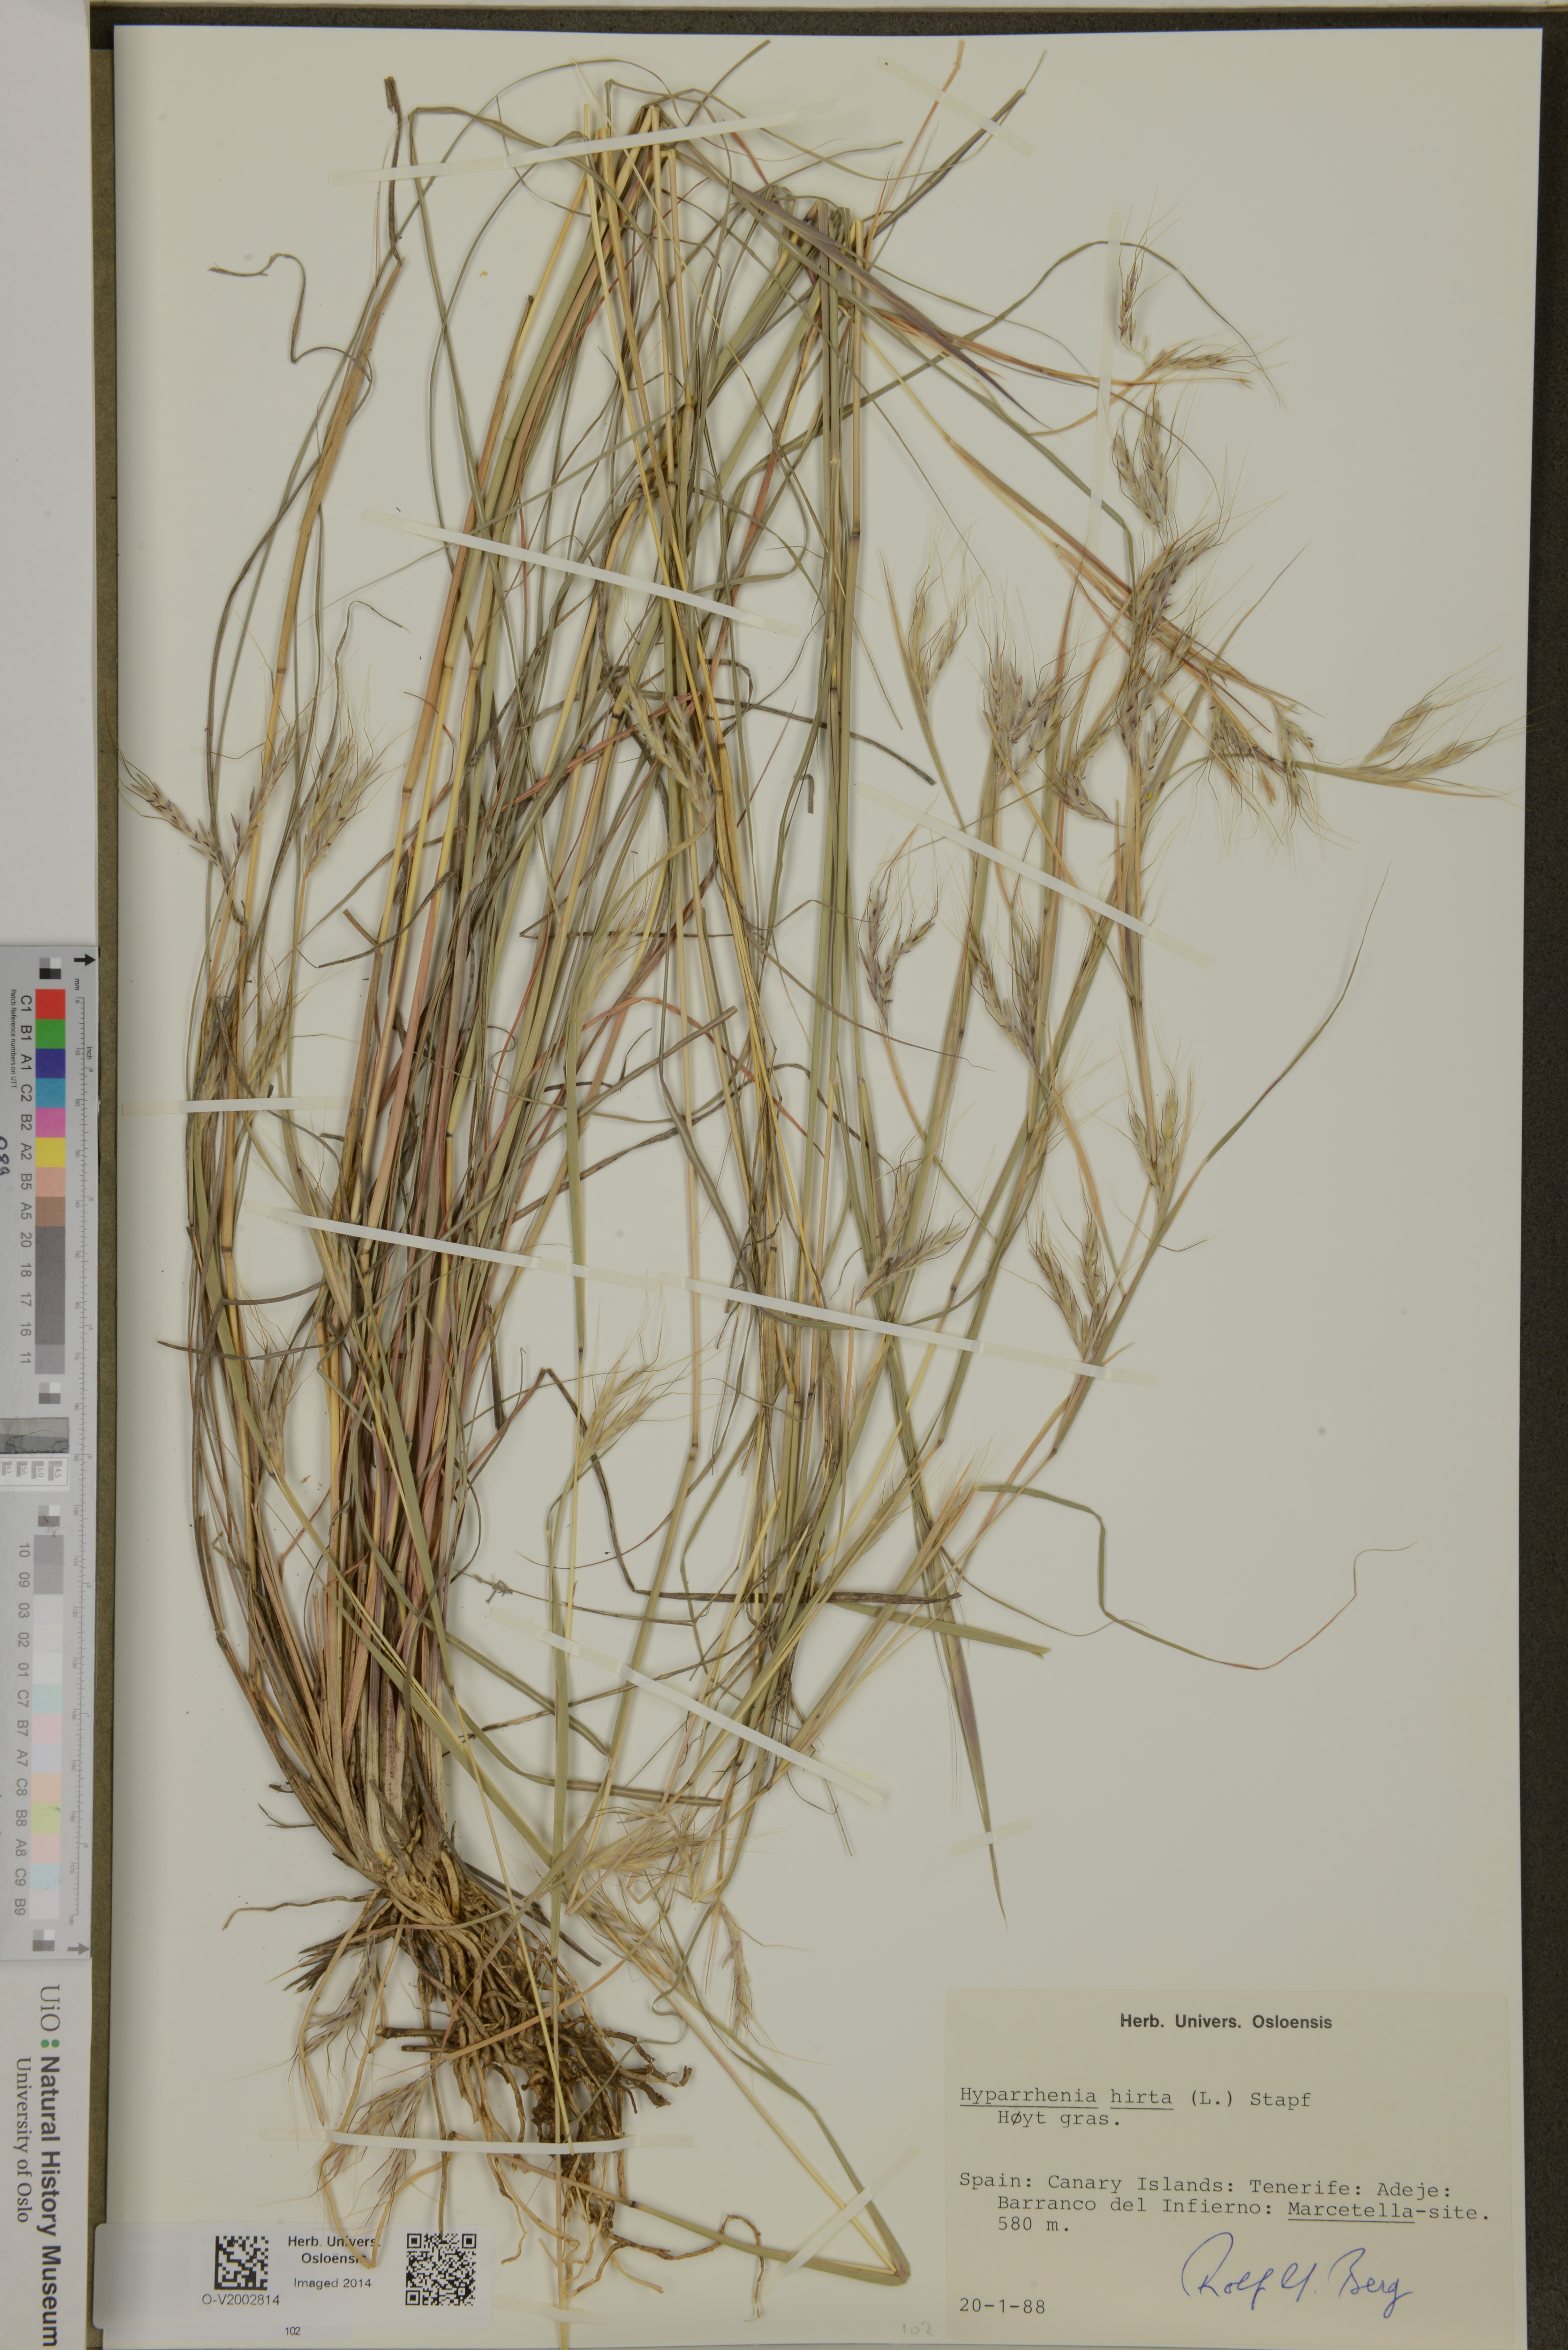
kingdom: Plantae
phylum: Tracheophyta
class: Liliopsida
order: Poales
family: Poaceae
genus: Hyparrhenia
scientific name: Hyparrhenia hirta
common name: Thatching grass
